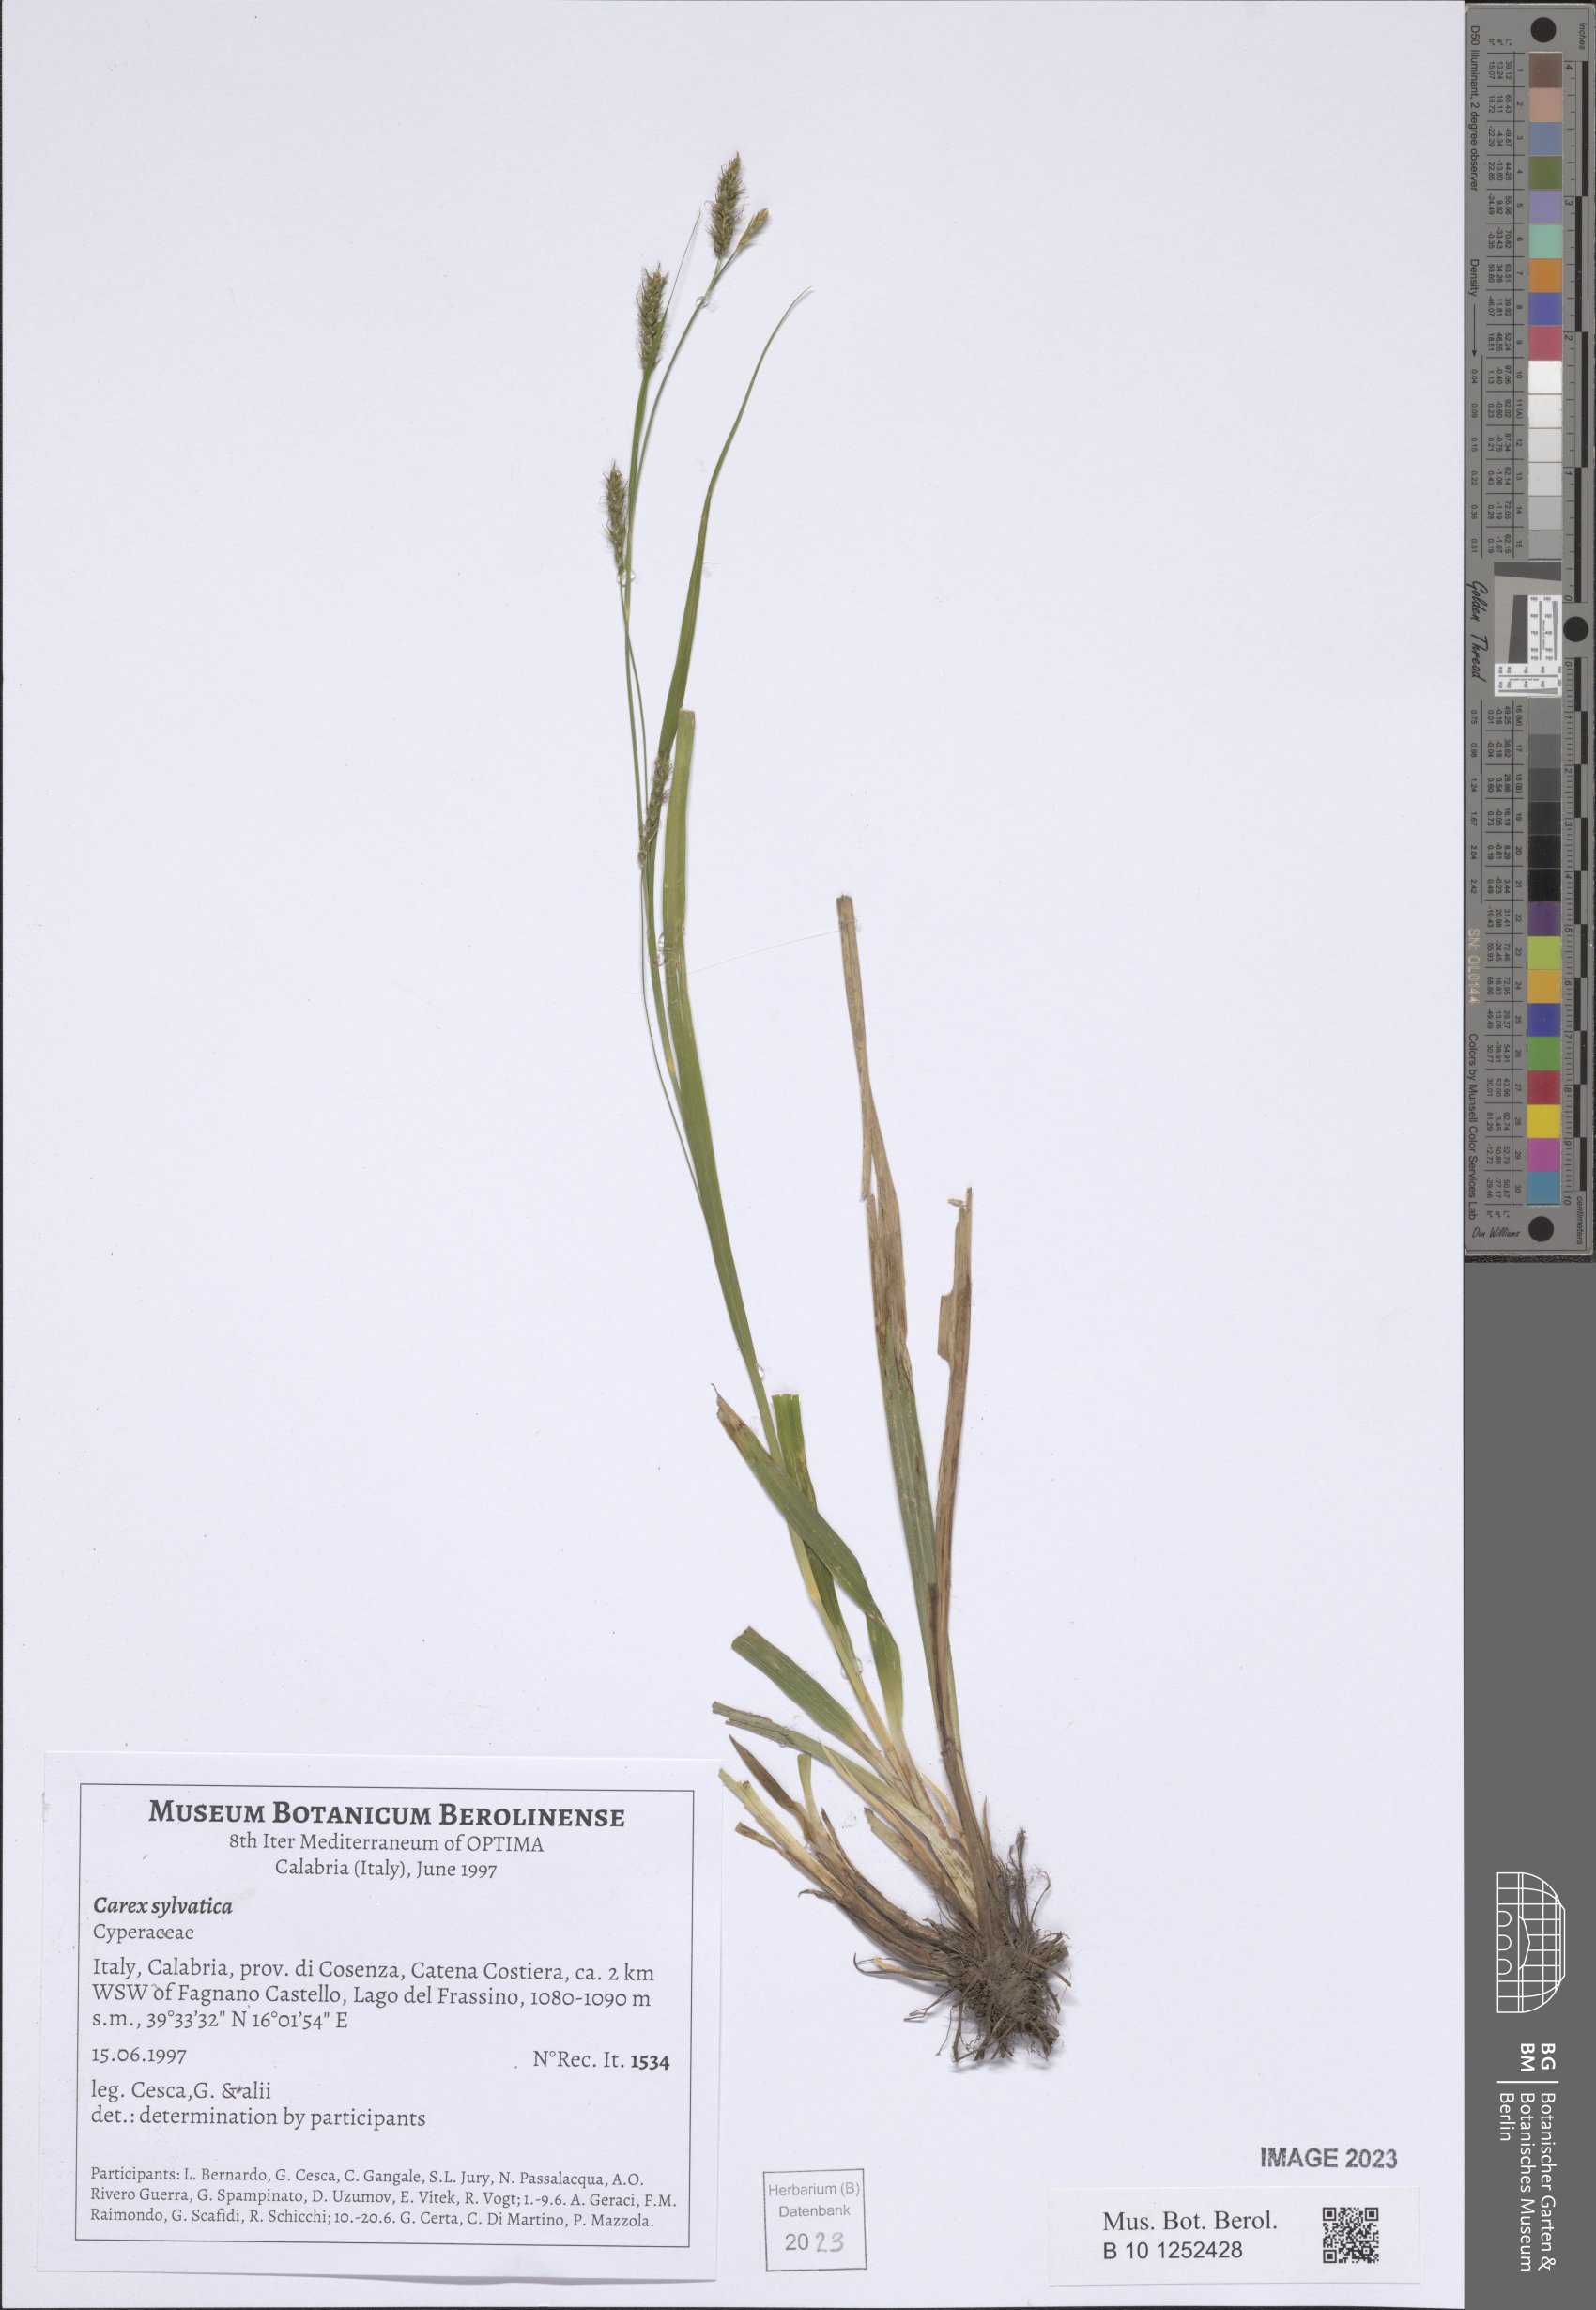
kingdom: Plantae
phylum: Tracheophyta
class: Liliopsida
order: Poales
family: Cyperaceae
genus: Carex
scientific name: Carex sylvatica
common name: Wood-sedge
